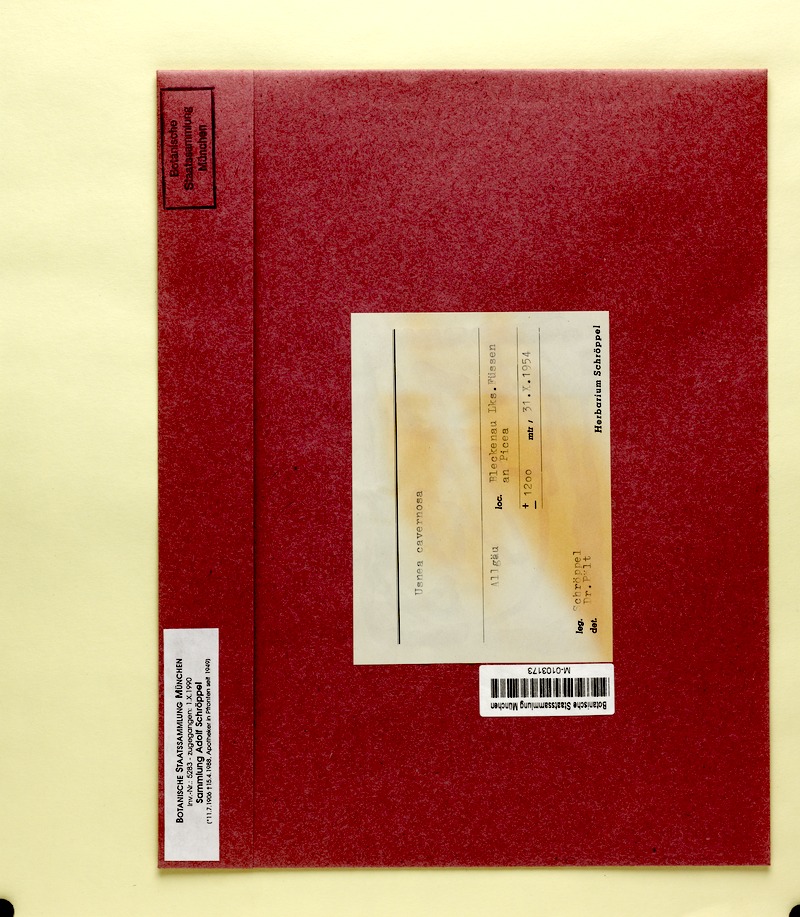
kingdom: Fungi
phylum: Ascomycota
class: Lecanoromycetes
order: Lecanorales
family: Parmeliaceae
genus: Usnea
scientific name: Usnea cavernosa
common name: Pitted beard lichen
